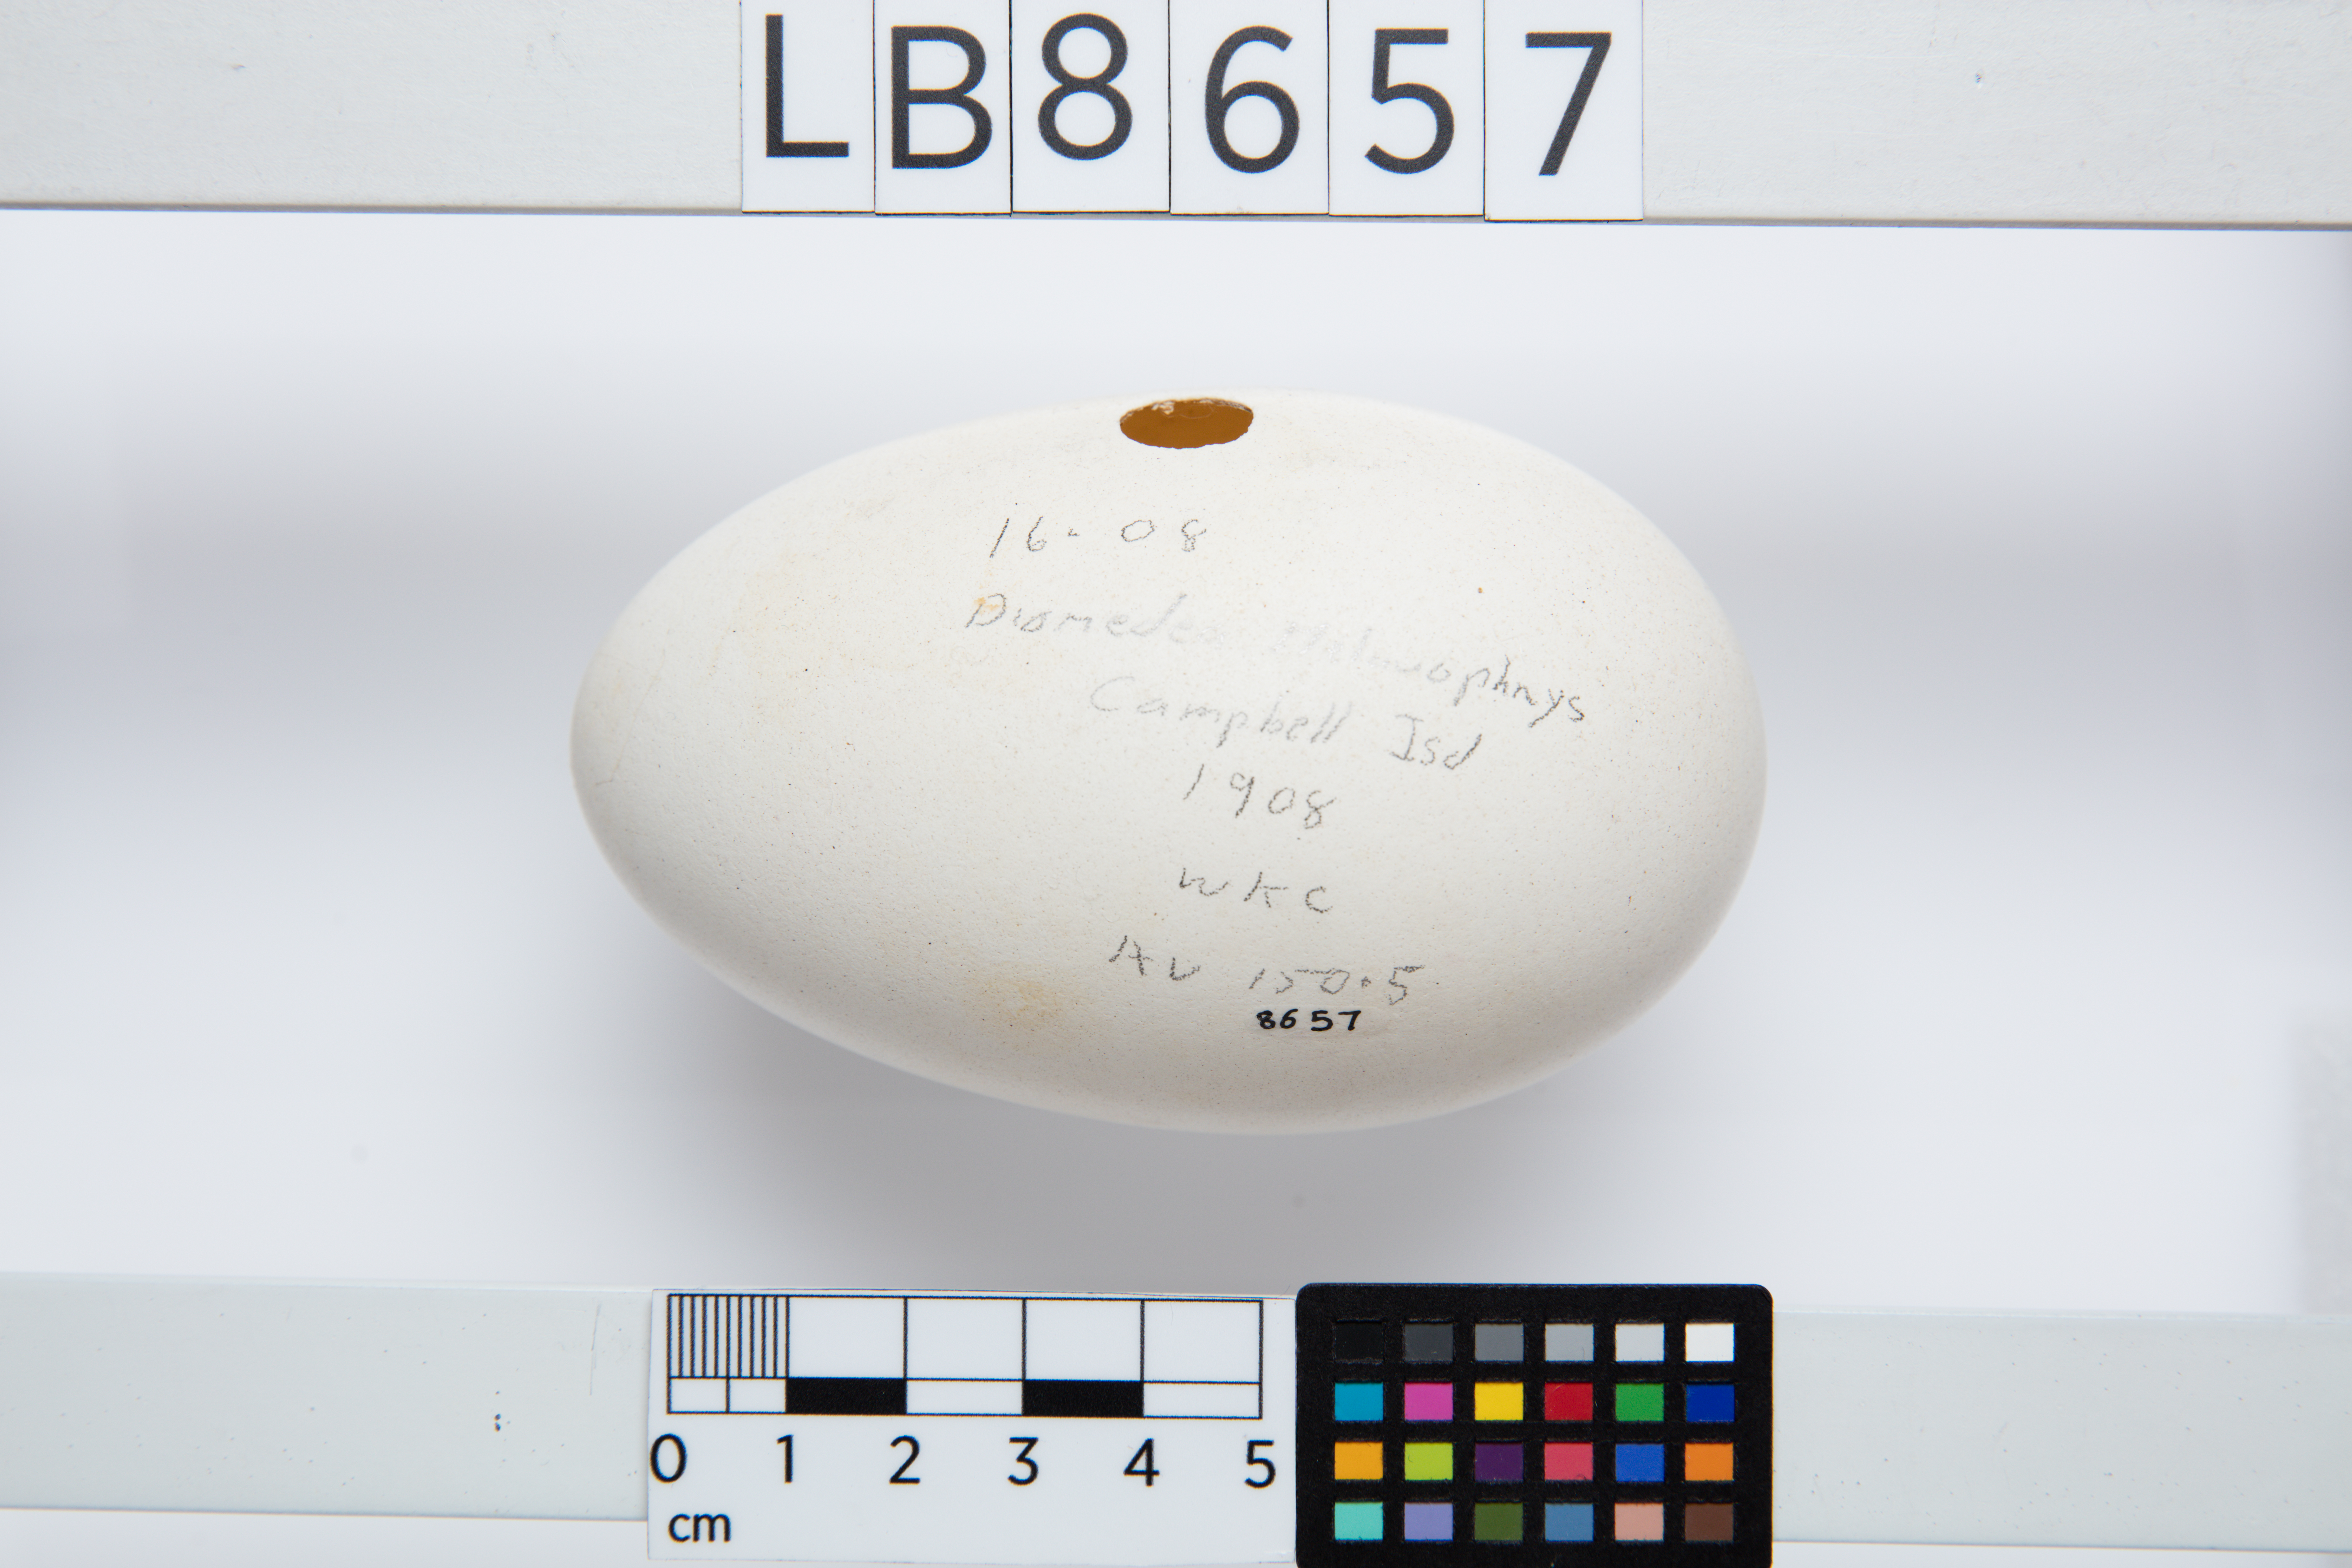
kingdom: Animalia
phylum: Chordata
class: Aves
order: Procellariiformes
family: Diomedeidae
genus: Thalassarche
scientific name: Thalassarche melanophris
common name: Black-browed albatross
